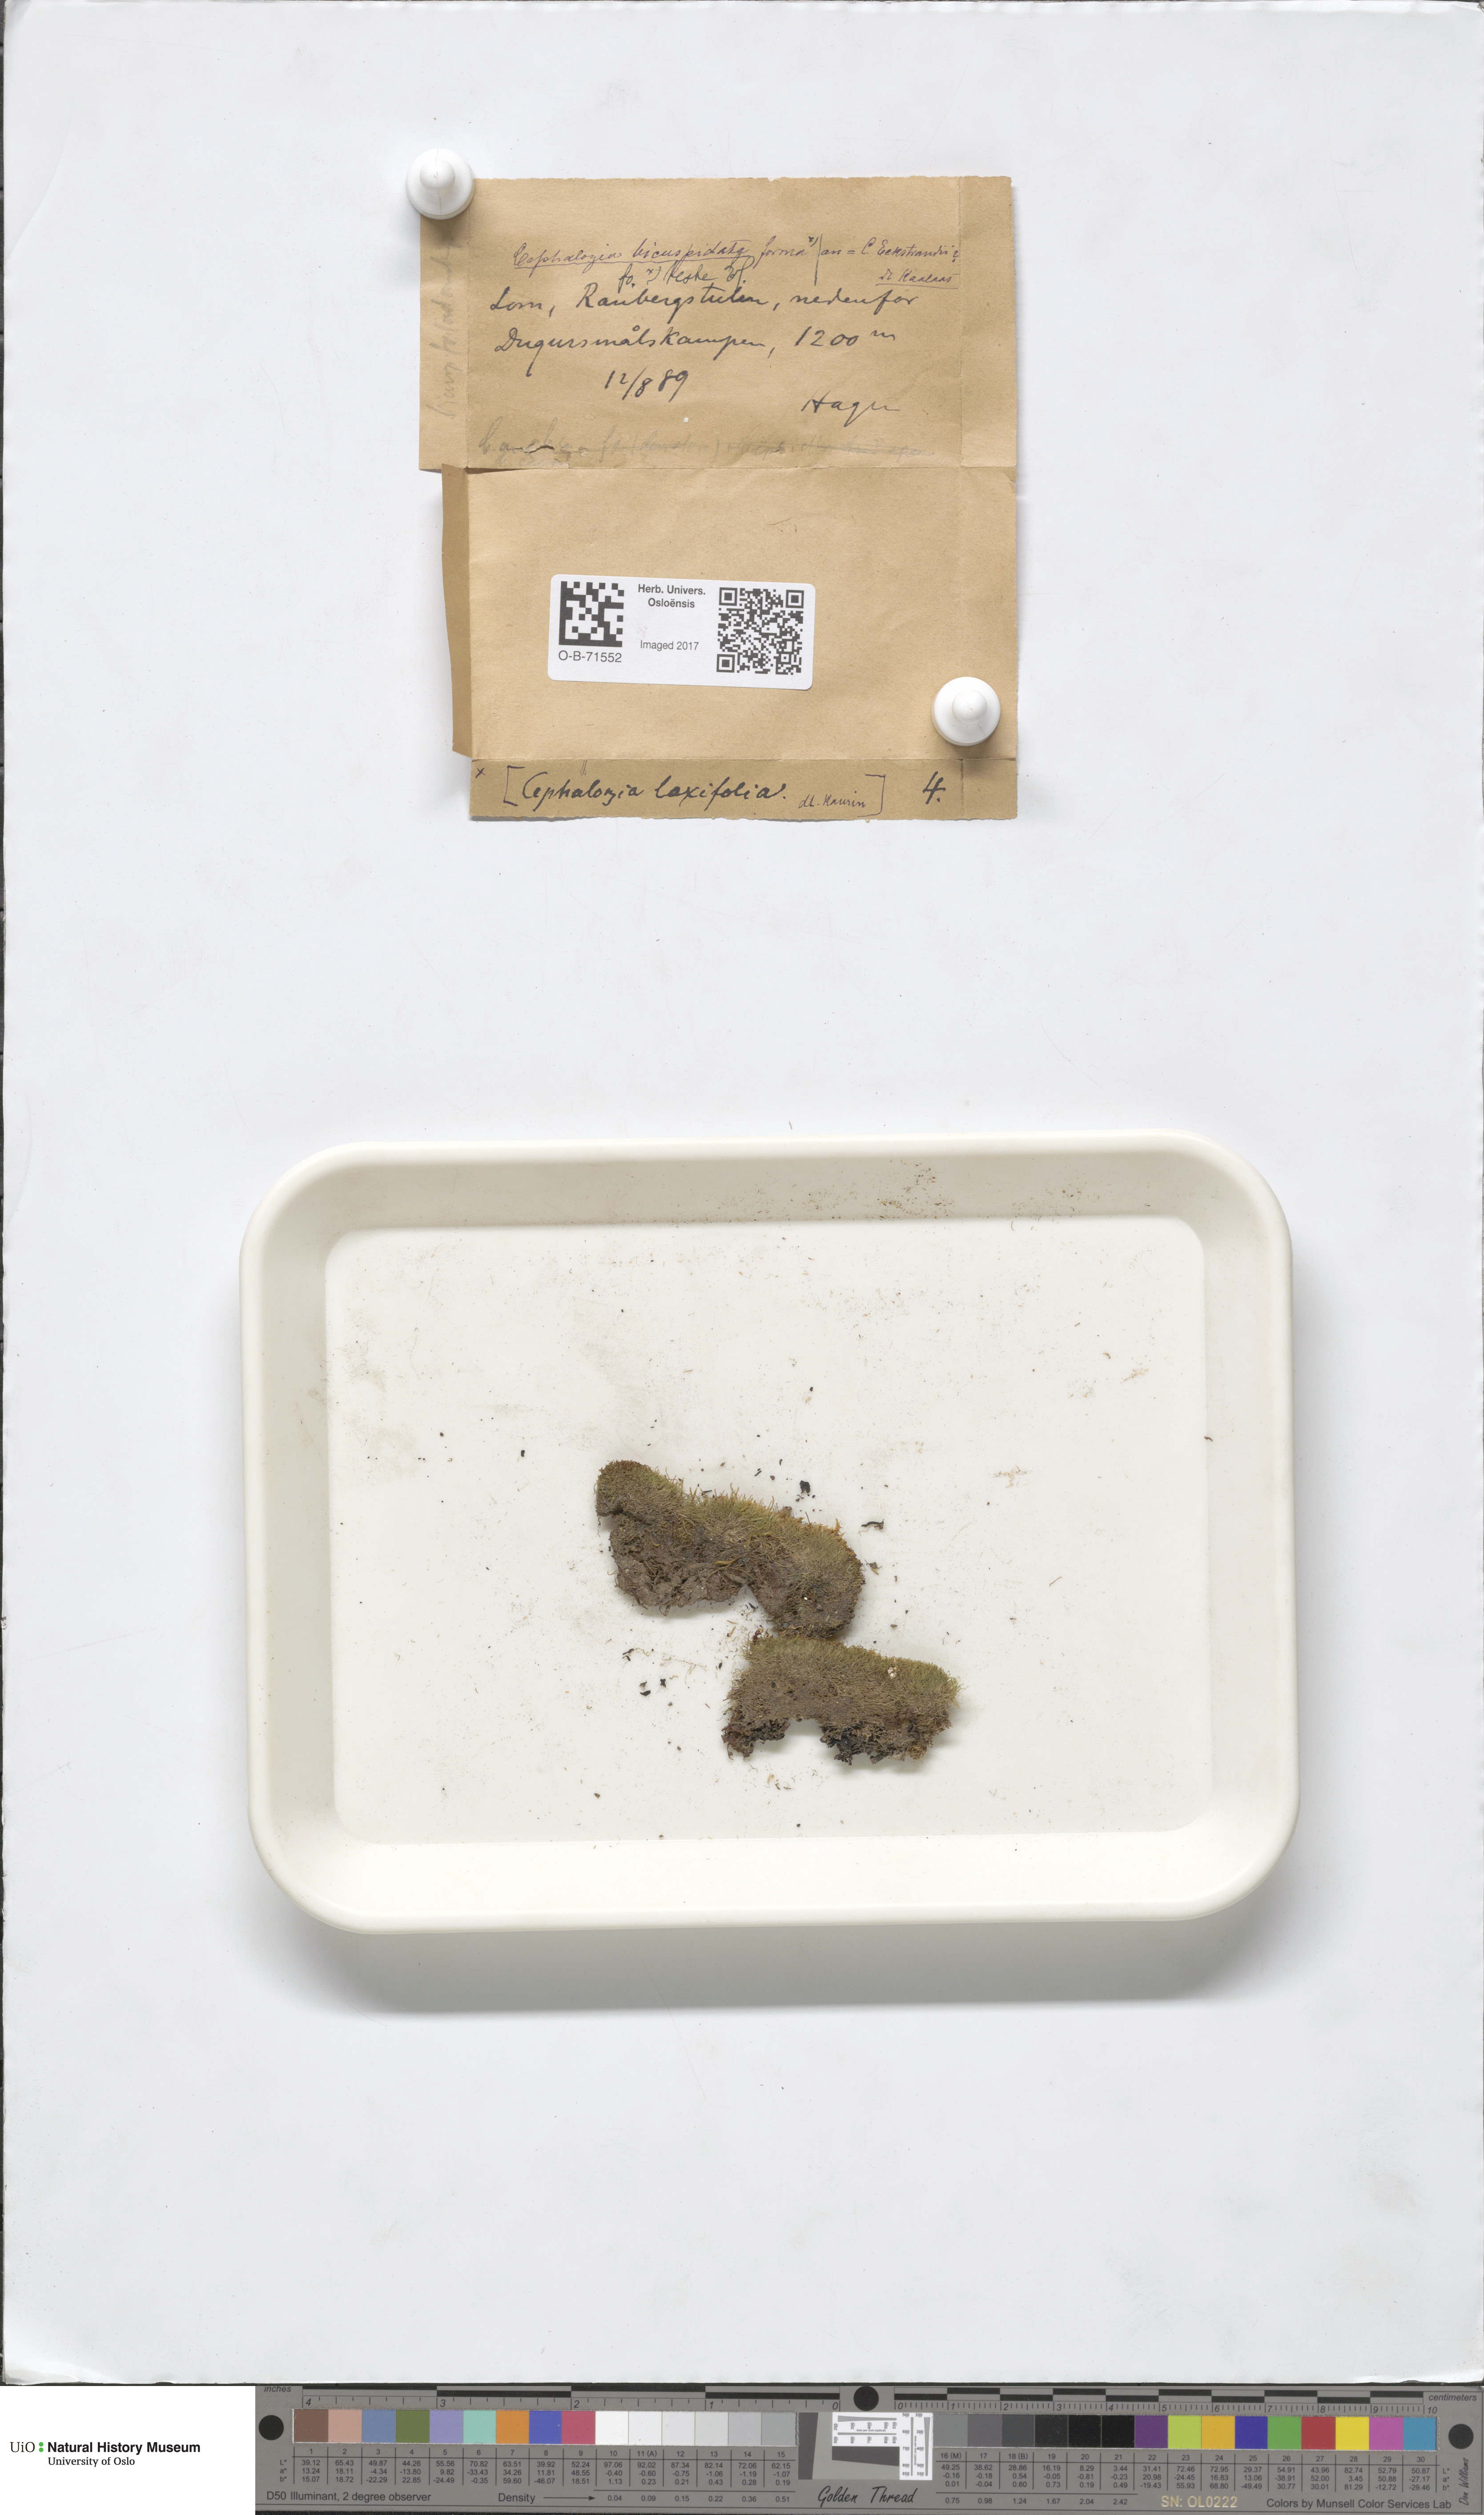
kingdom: Plantae
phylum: Marchantiophyta
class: Jungermanniopsida
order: Jungermanniales
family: Cephaloziaceae
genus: Cephalozia
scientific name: Cephalozia bicuspidata
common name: Two-horned pincerwort
